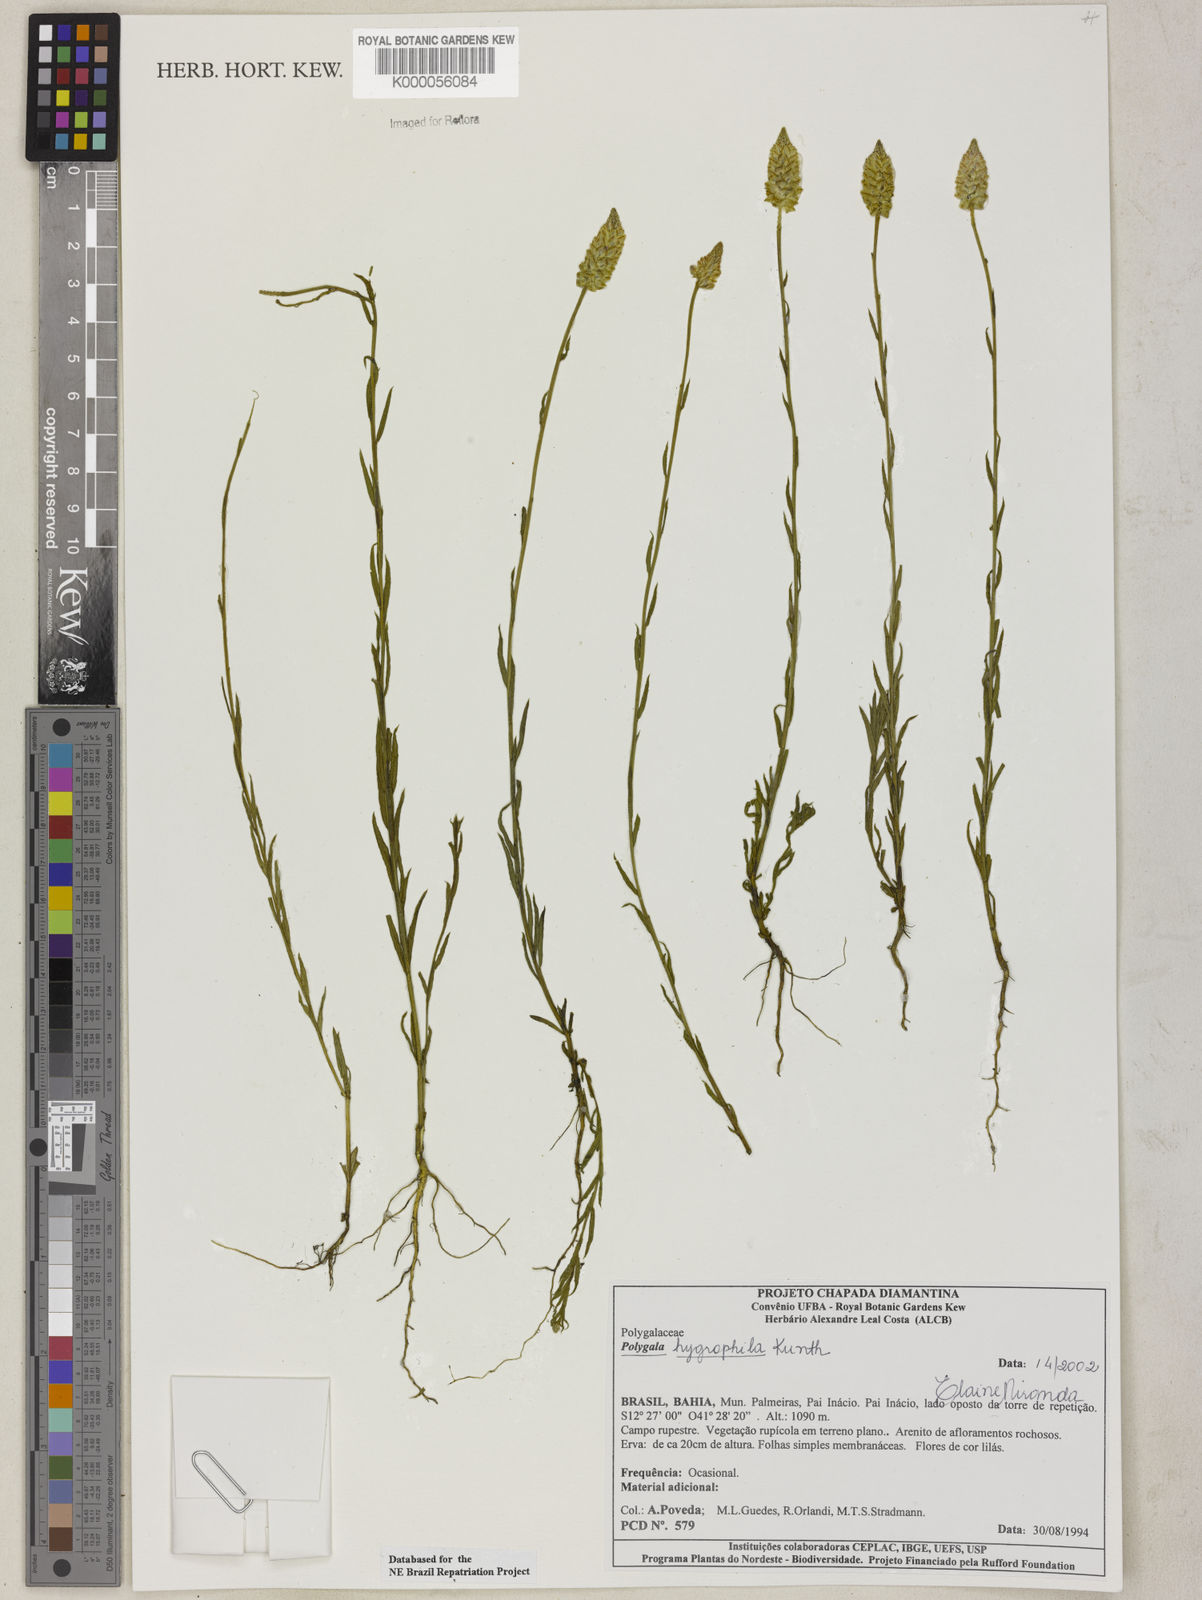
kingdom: Plantae
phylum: Tracheophyta
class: Magnoliopsida
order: Fabales
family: Polygalaceae
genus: Polygala
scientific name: Polygala hygrophila
